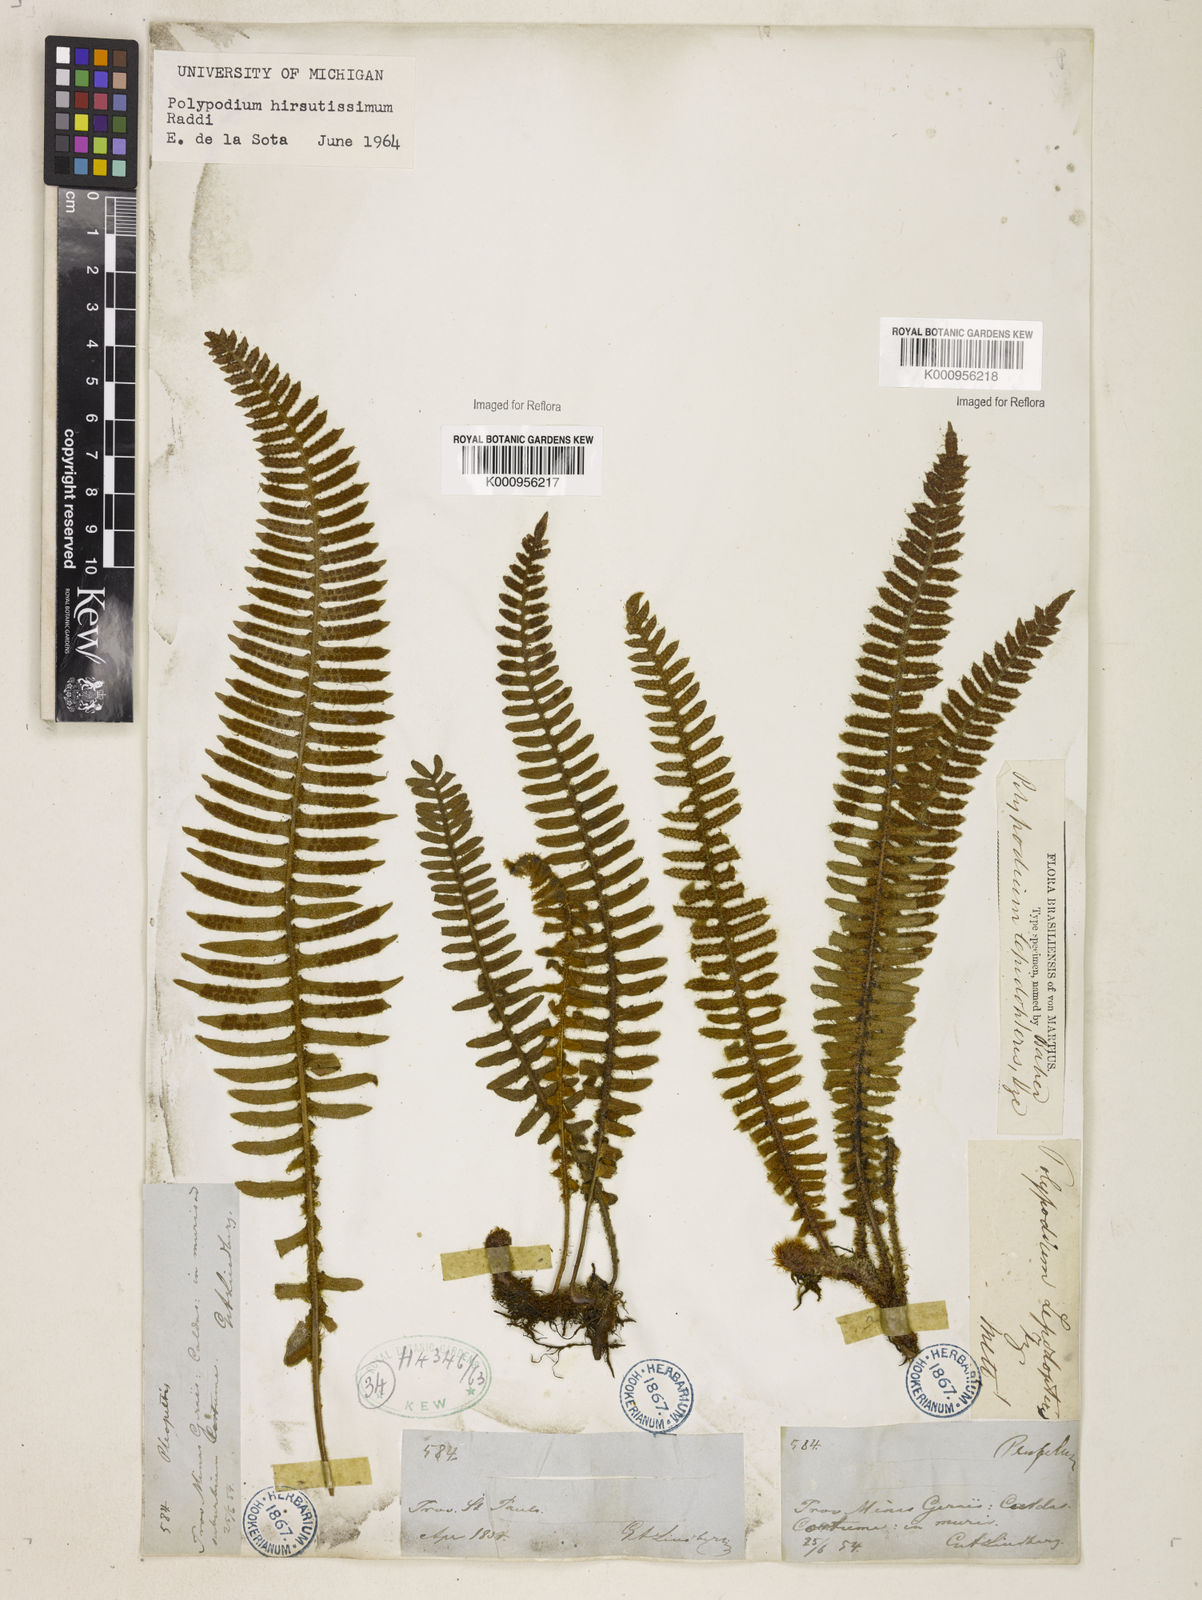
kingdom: Plantae
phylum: Tracheophyta
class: Polypodiopsida
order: Polypodiales
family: Polypodiaceae
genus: Pleopeltis
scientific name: Pleopeltis hirsutissima
